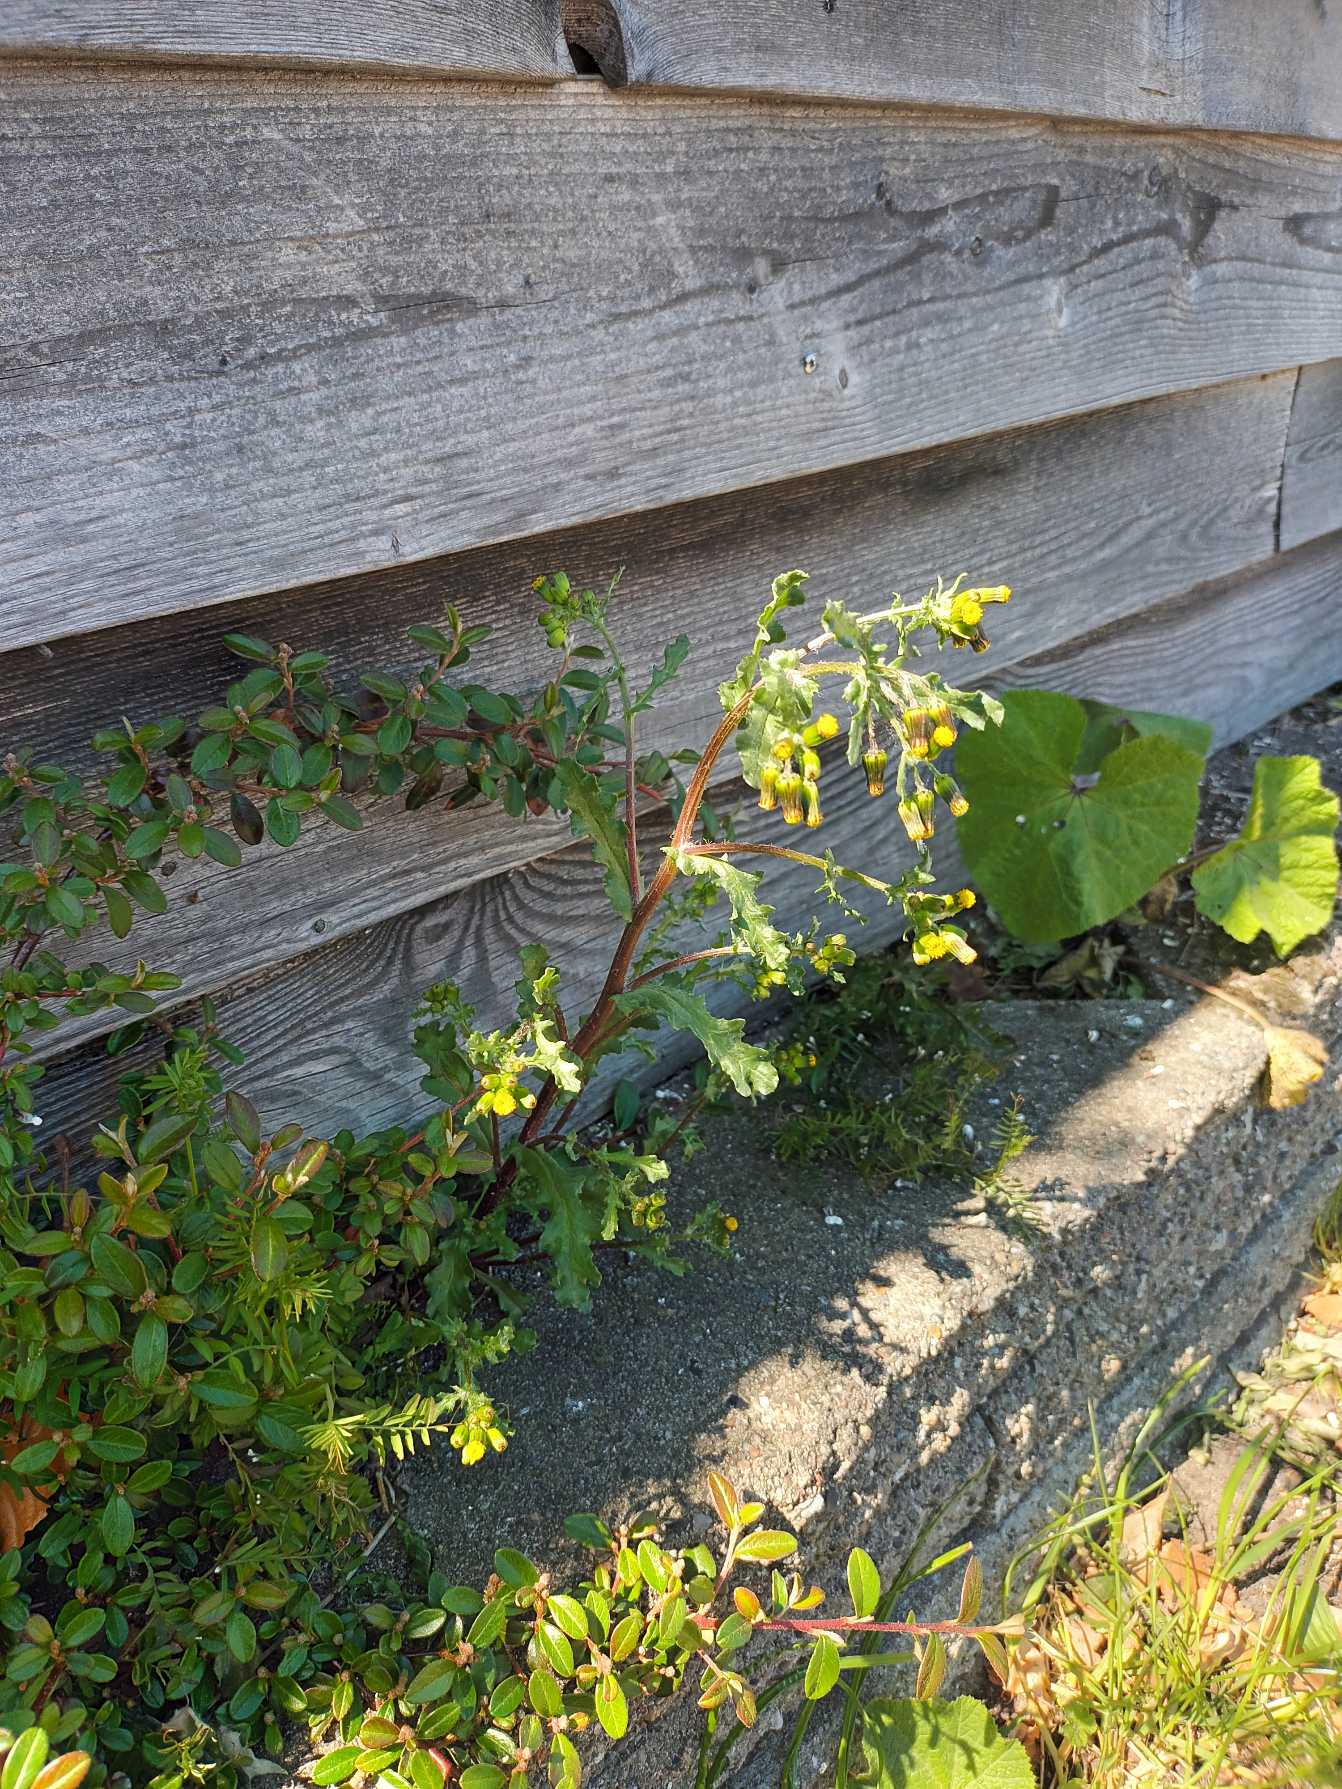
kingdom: Plantae
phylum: Tracheophyta
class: Magnoliopsida
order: Asterales
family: Asteraceae
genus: Senecio
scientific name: Senecio vulgaris
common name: Almindelig brandbæger
